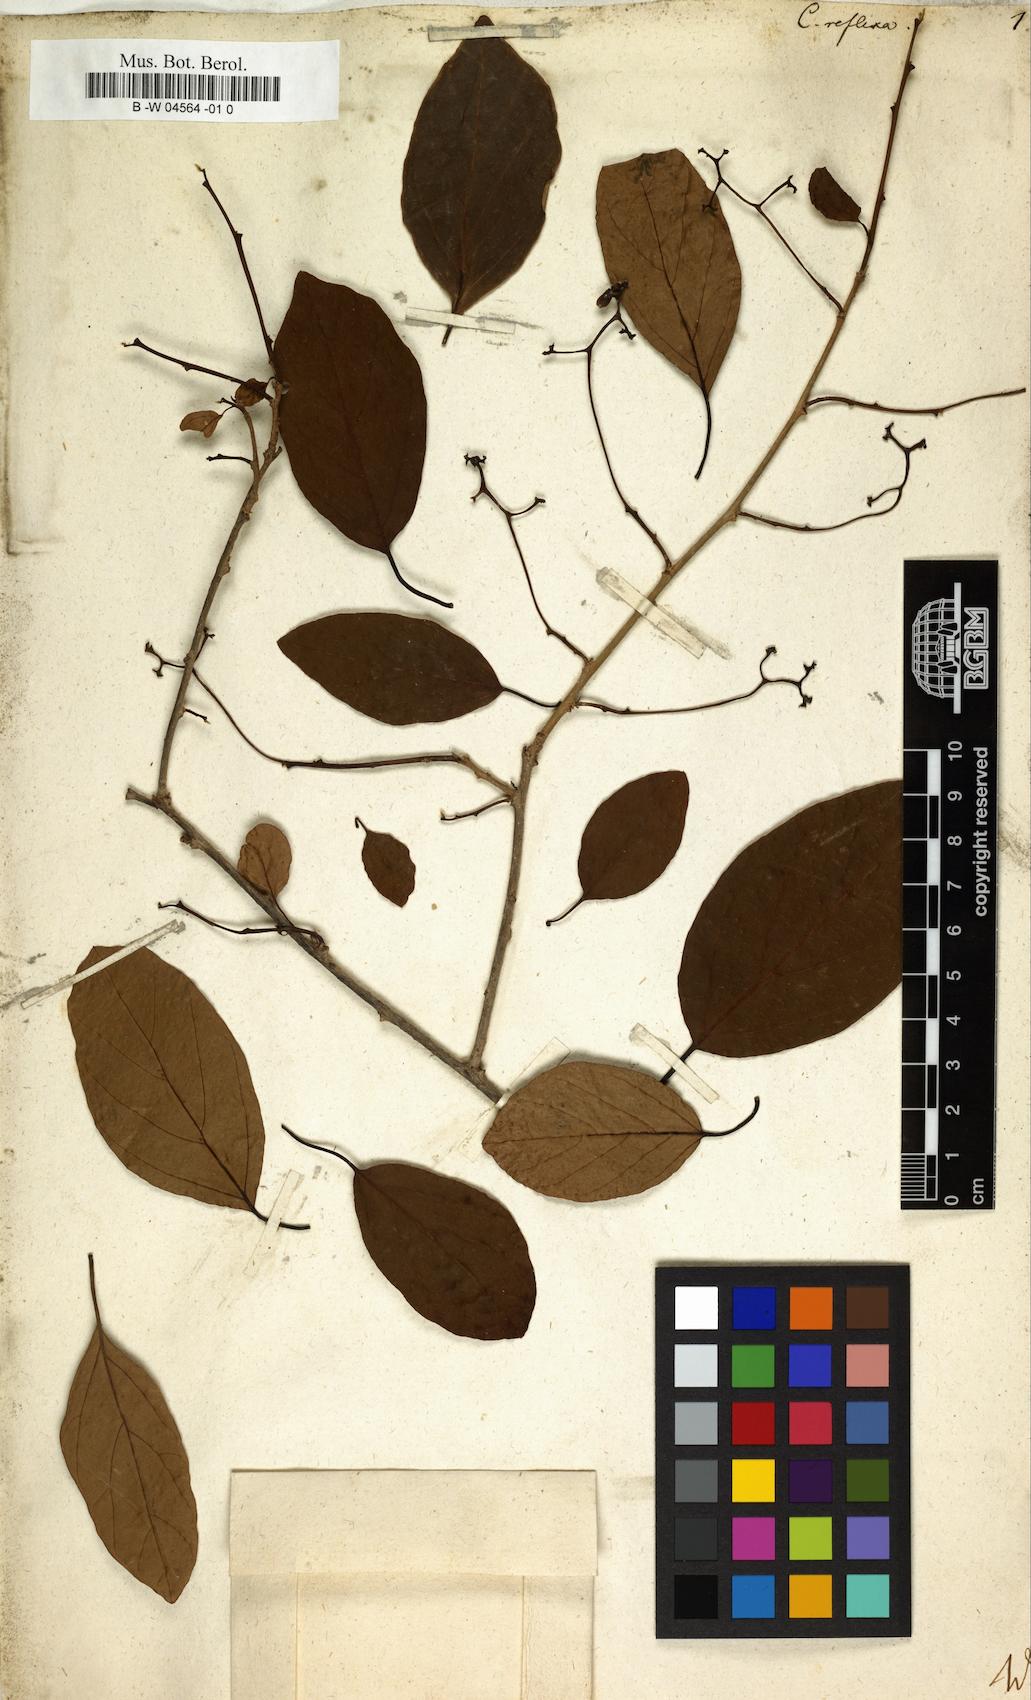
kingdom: Plantae
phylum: Tracheophyta
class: Magnoliopsida
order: Boraginales
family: Cordiaceae
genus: Cordia
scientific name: Cordia reflexa
